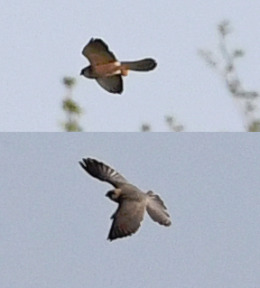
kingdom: Animalia
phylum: Chordata
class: Aves
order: Falconiformes
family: Falconidae
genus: Falco
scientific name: Falco vespertinus
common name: Aftenfalk
